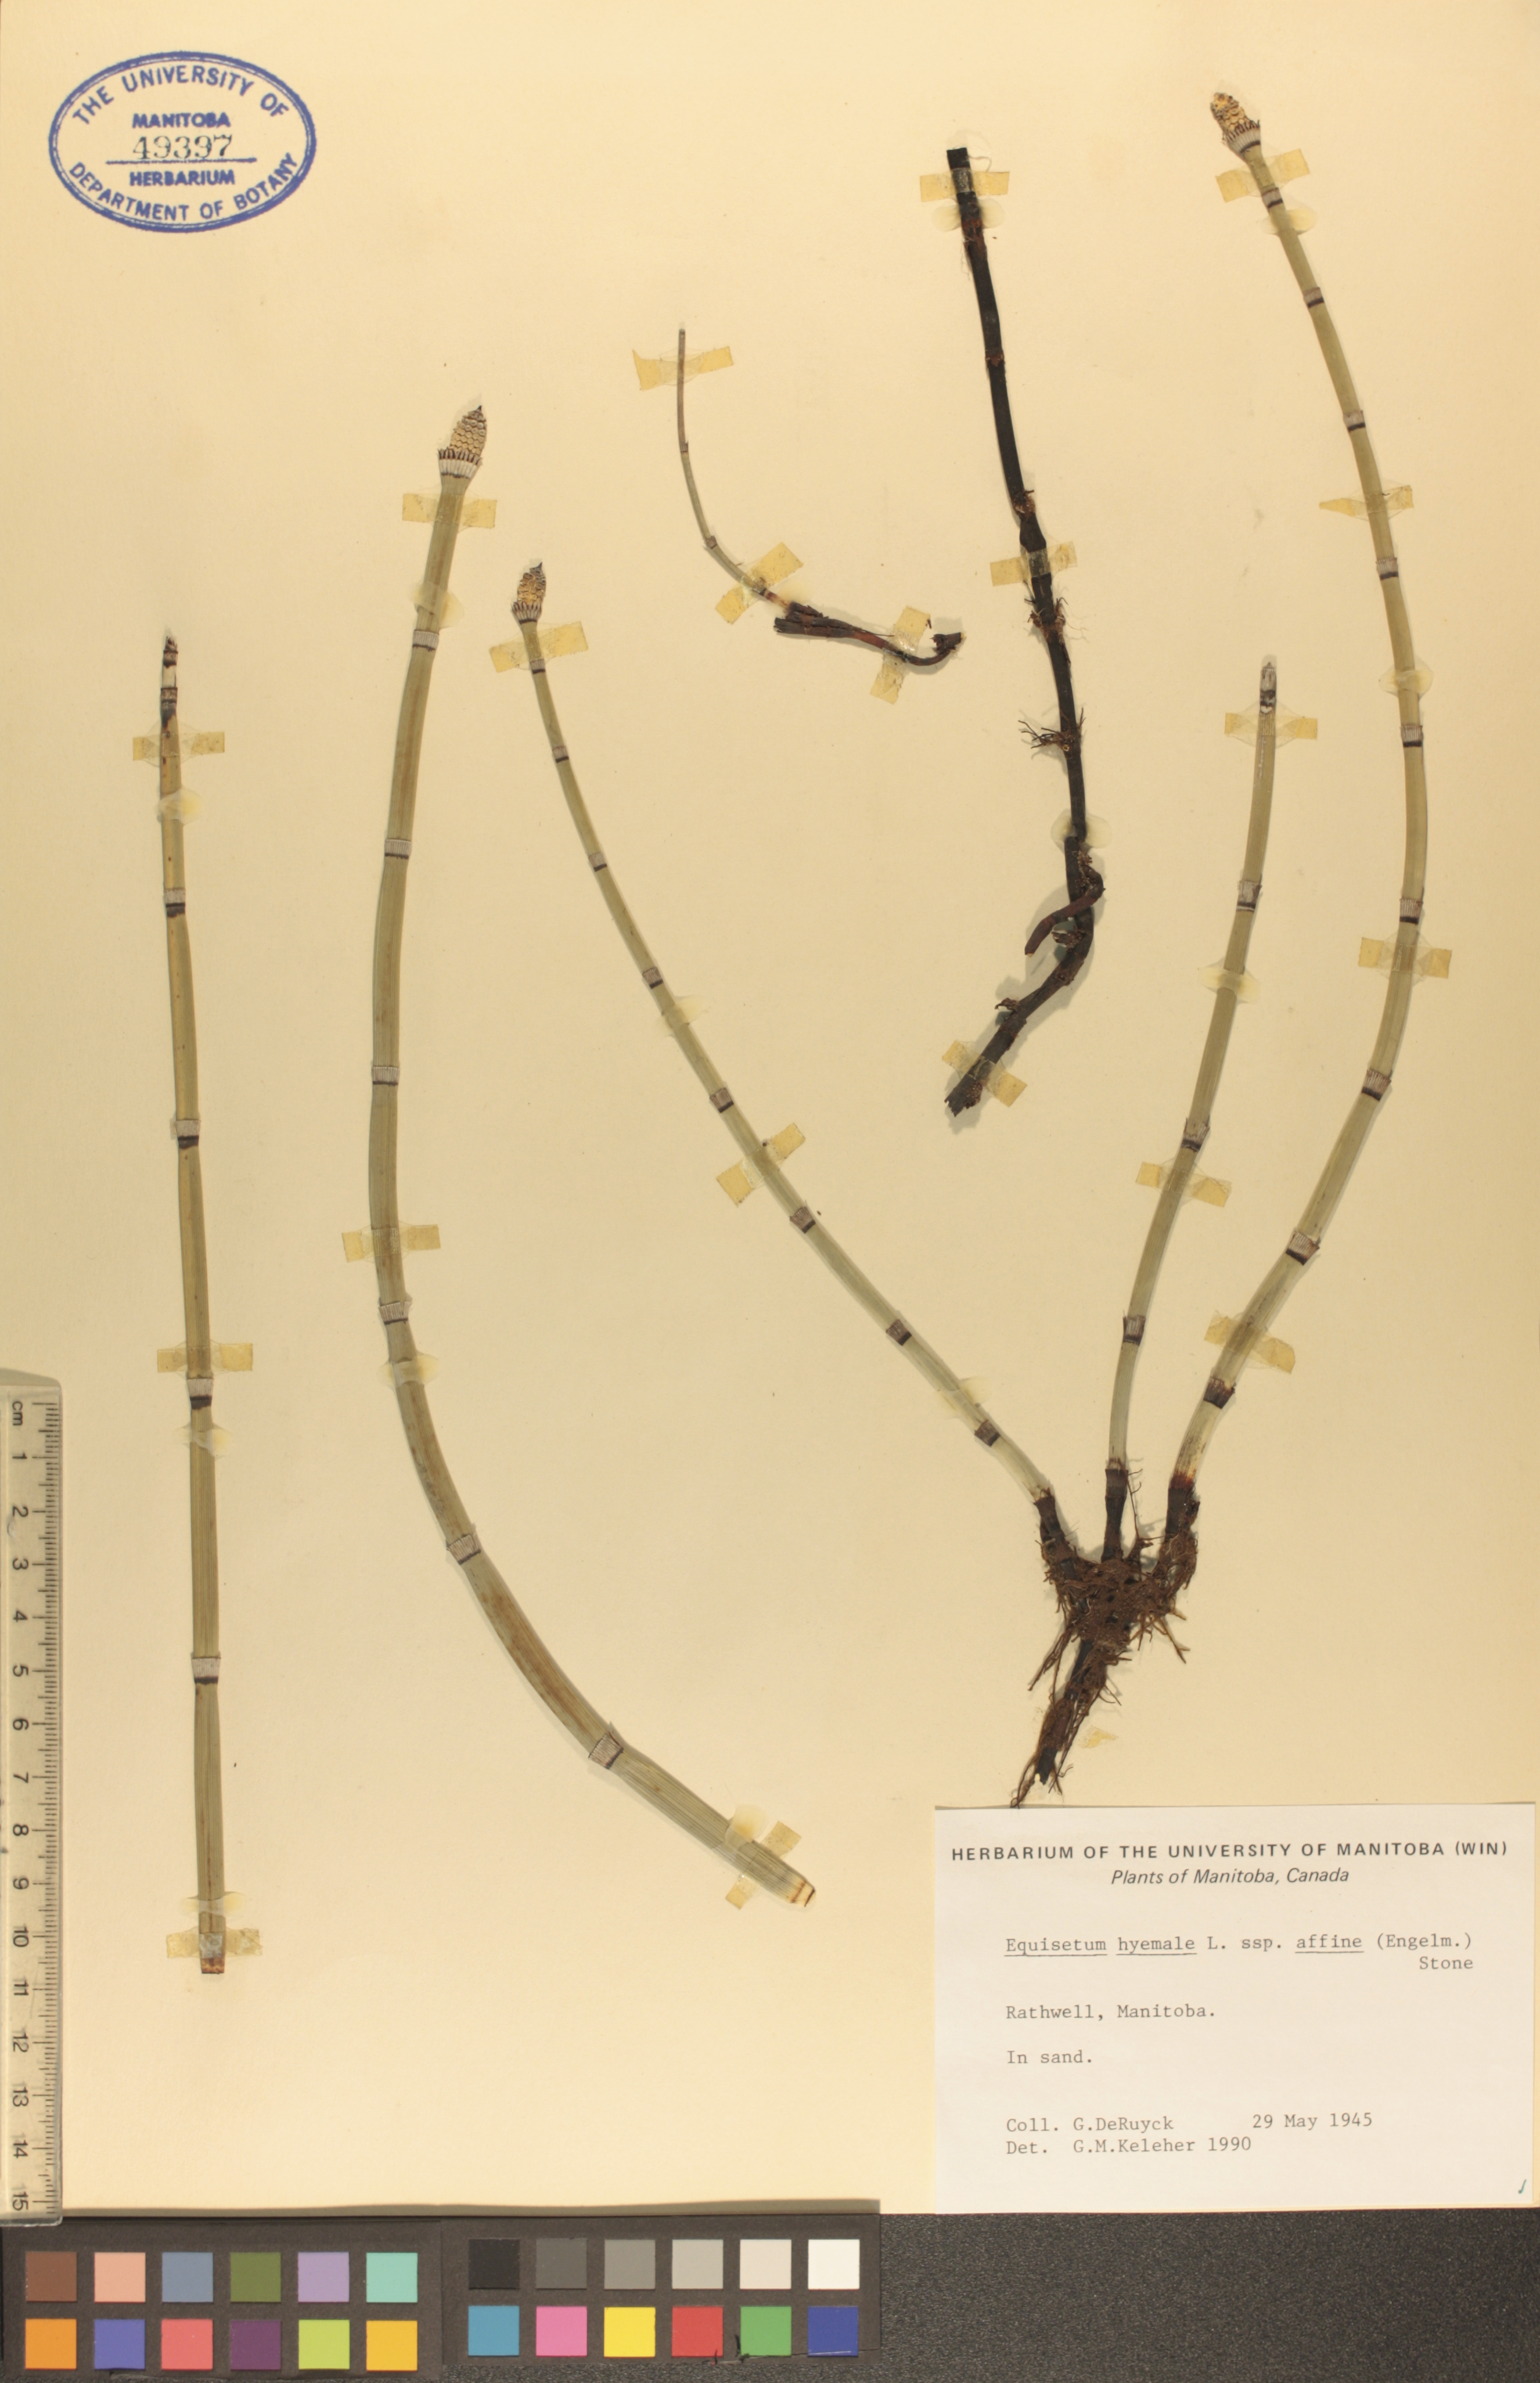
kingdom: Plantae
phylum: Tracheophyta
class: Polypodiopsida
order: Equisetales
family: Equisetaceae
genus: Equisetum
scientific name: Equisetum praealtum
